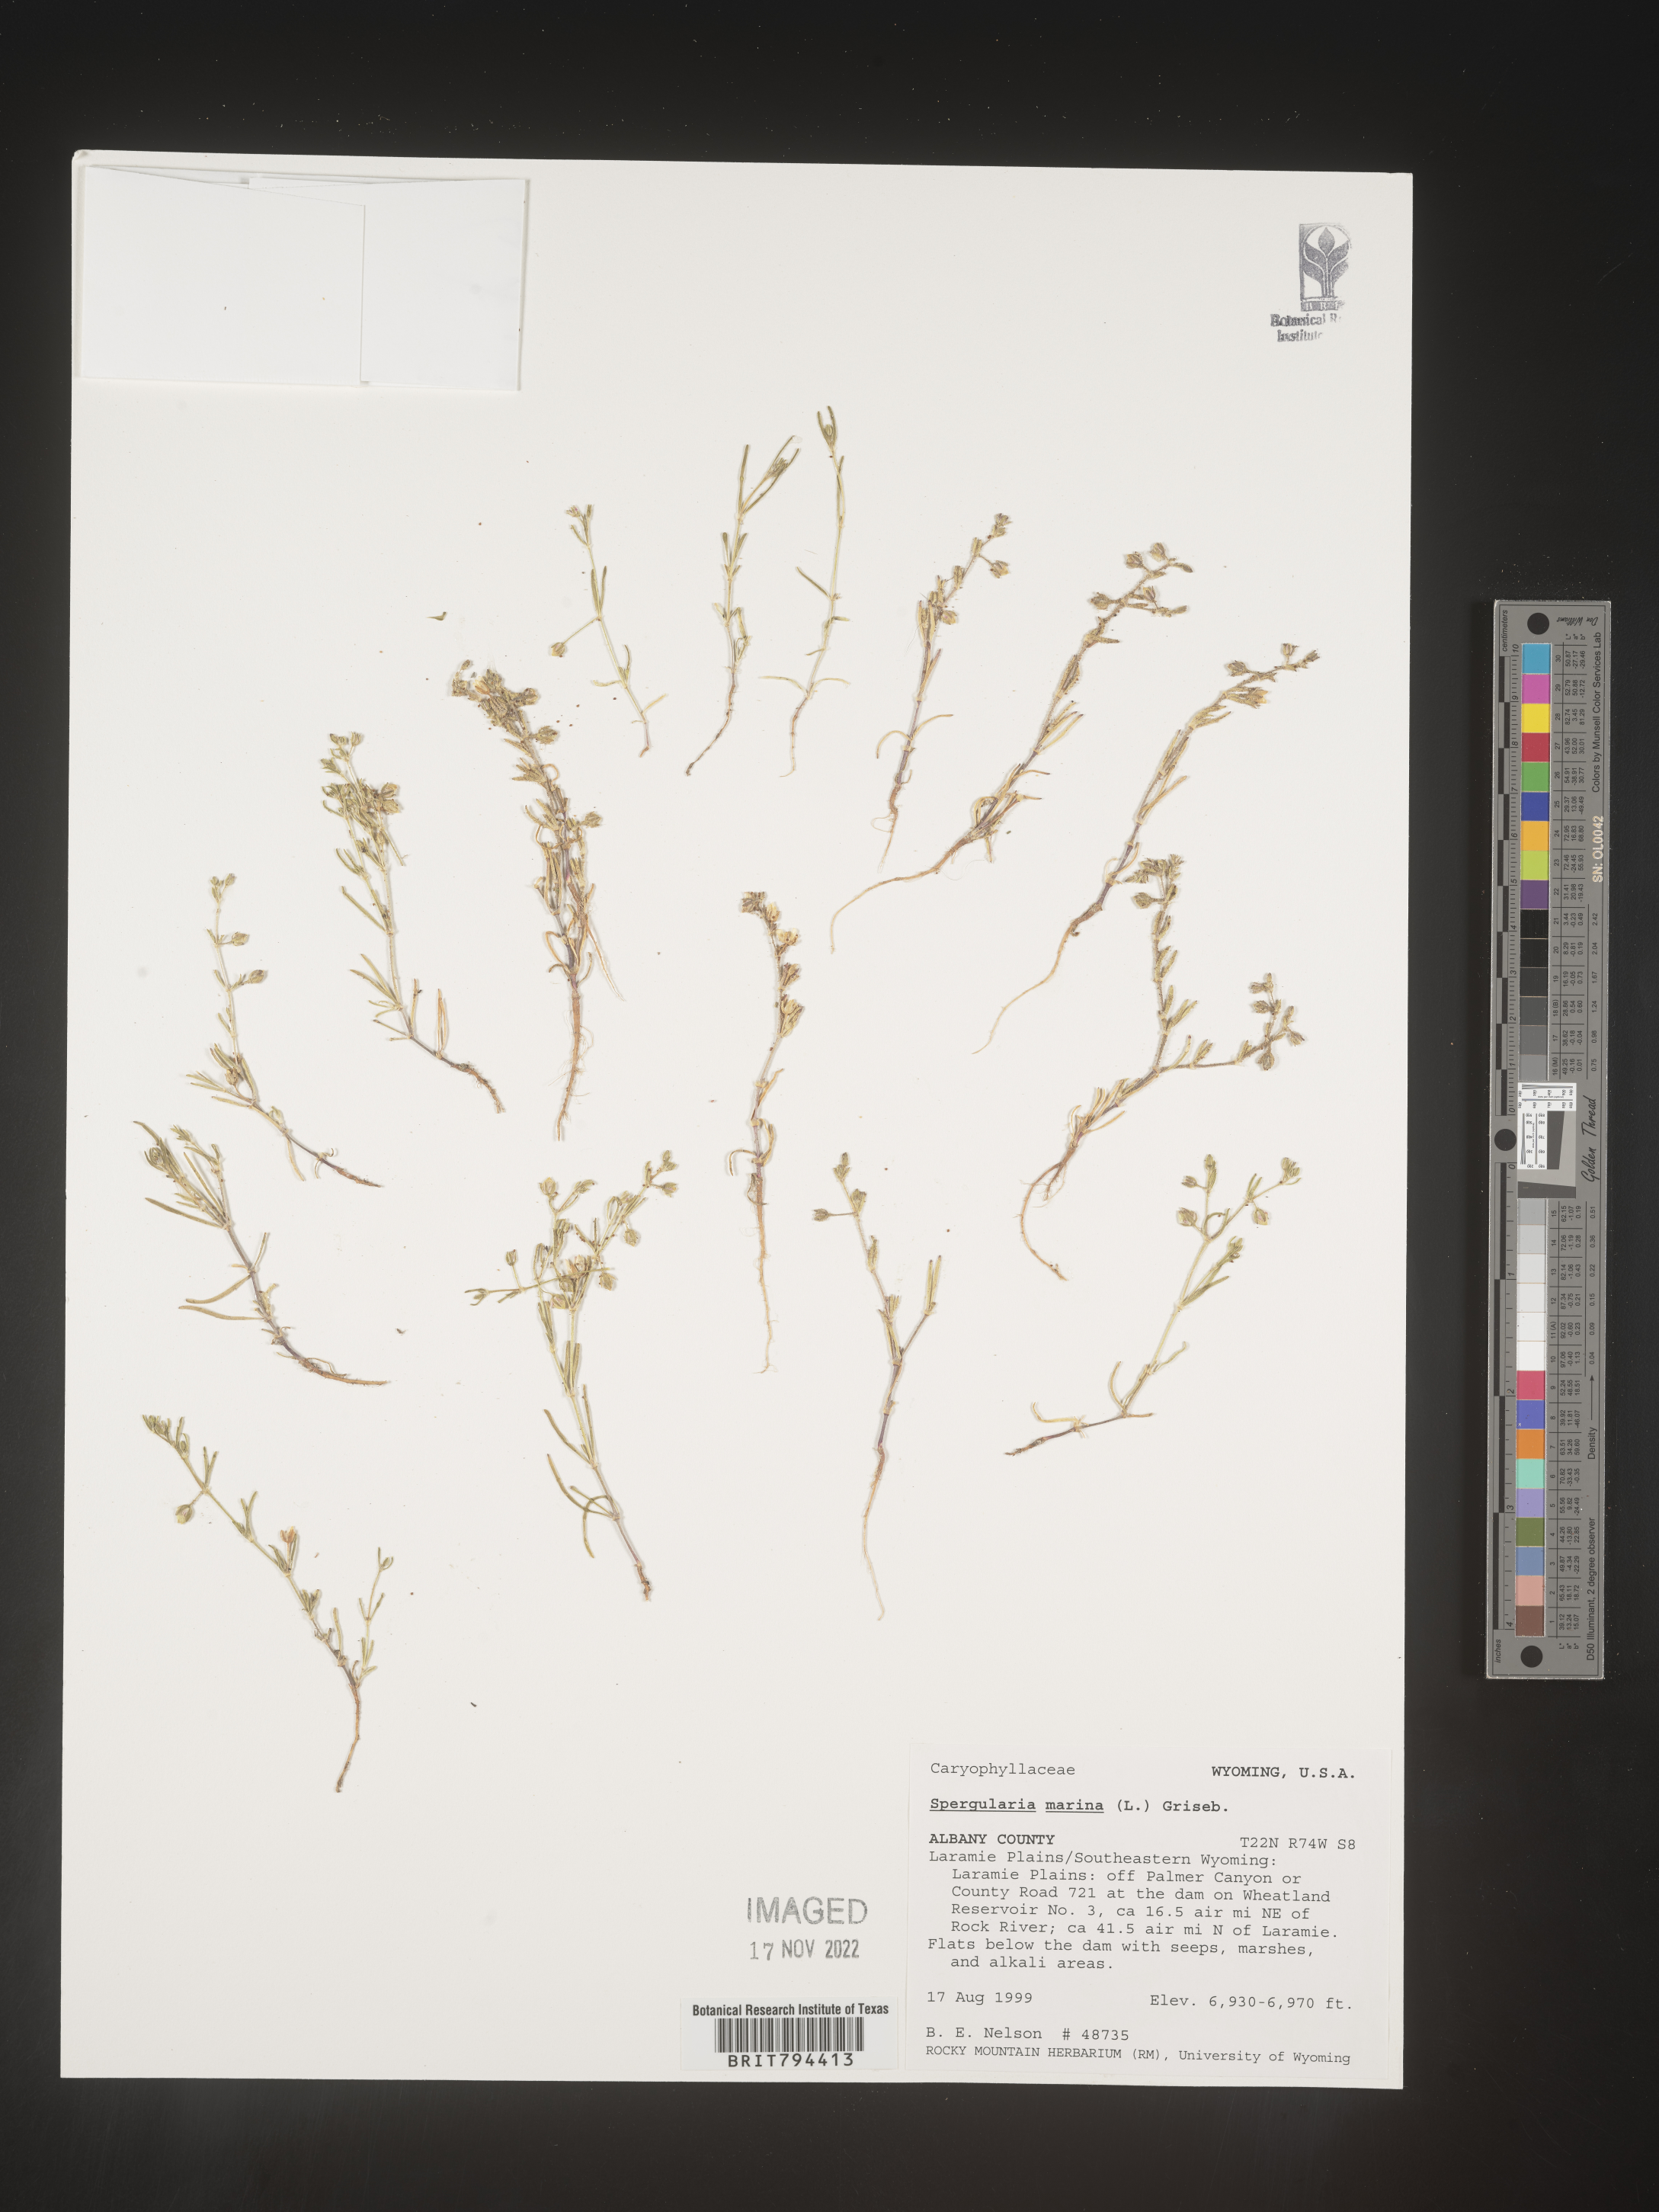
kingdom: Plantae
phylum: Tracheophyta
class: Magnoliopsida
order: Caryophyllales
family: Caryophyllaceae
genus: Spergularia
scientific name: Spergularia marina
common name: Lesser sea-spurrey
